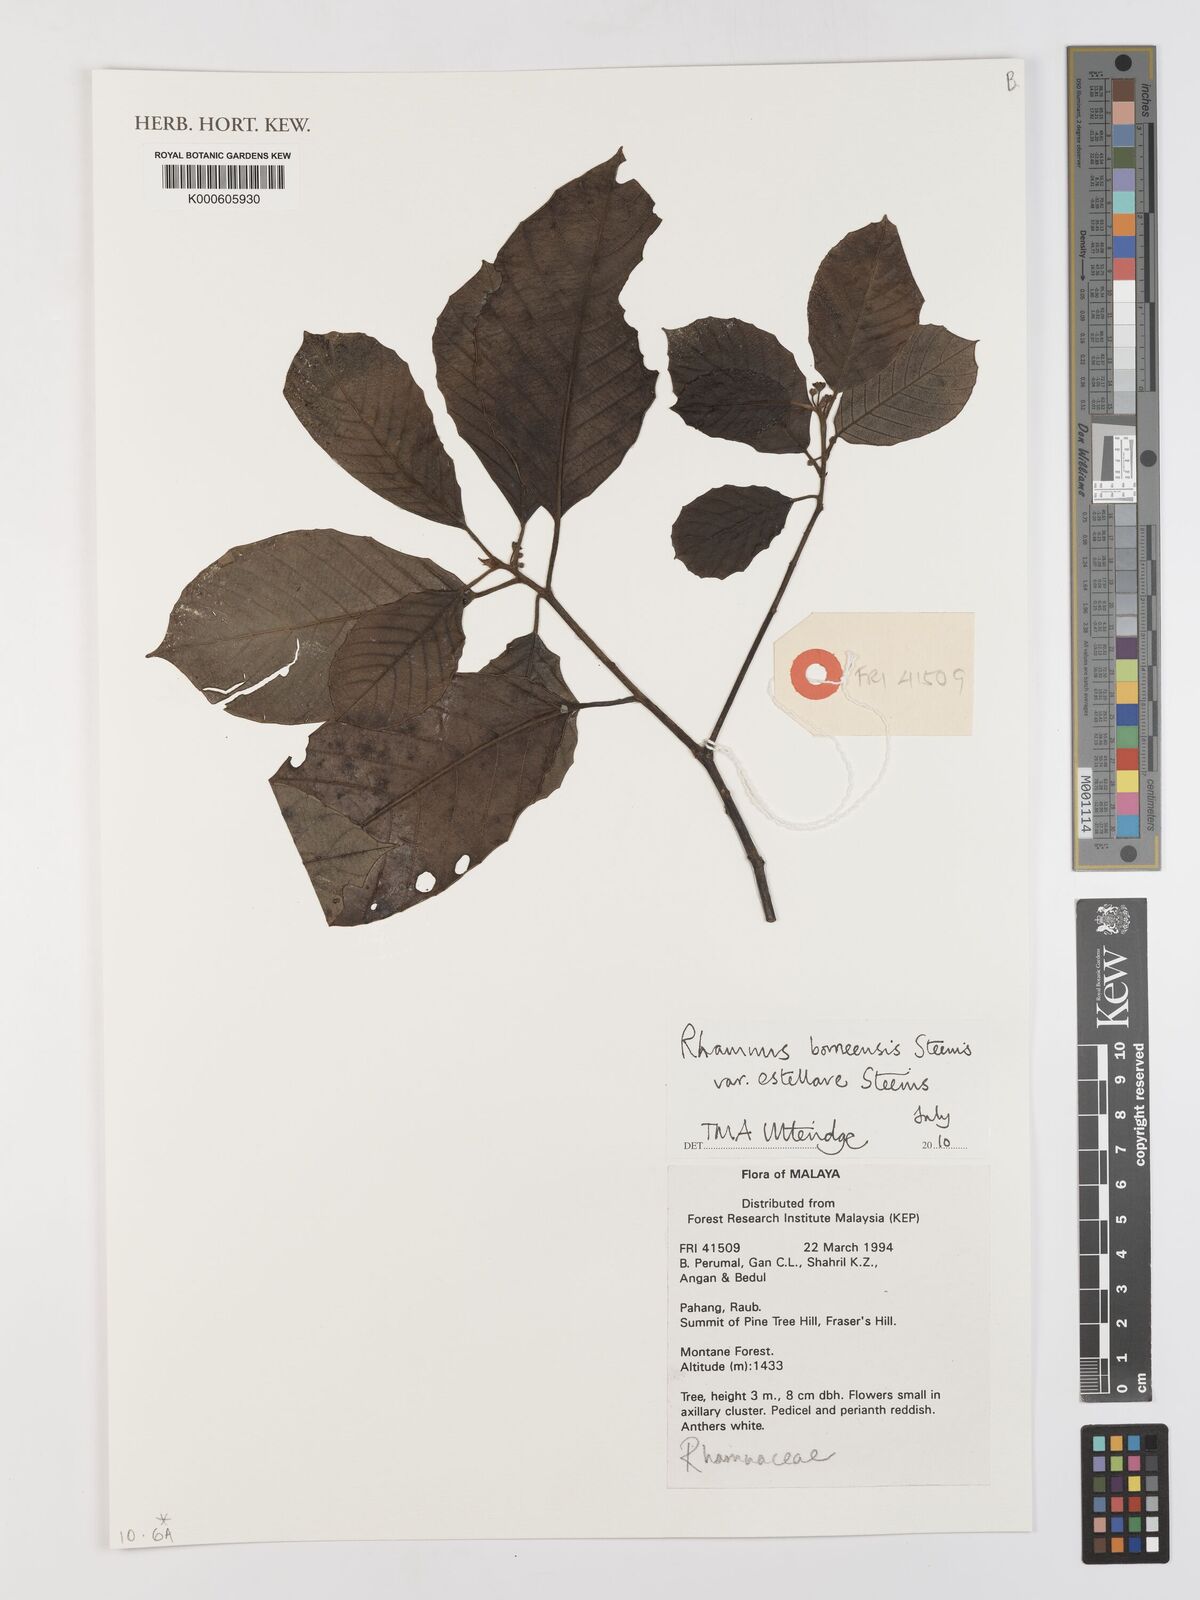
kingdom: Plantae
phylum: Tracheophyta
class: Magnoliopsida
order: Rosales
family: Rhamnaceae
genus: Frangula
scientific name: Frangula borneensis
